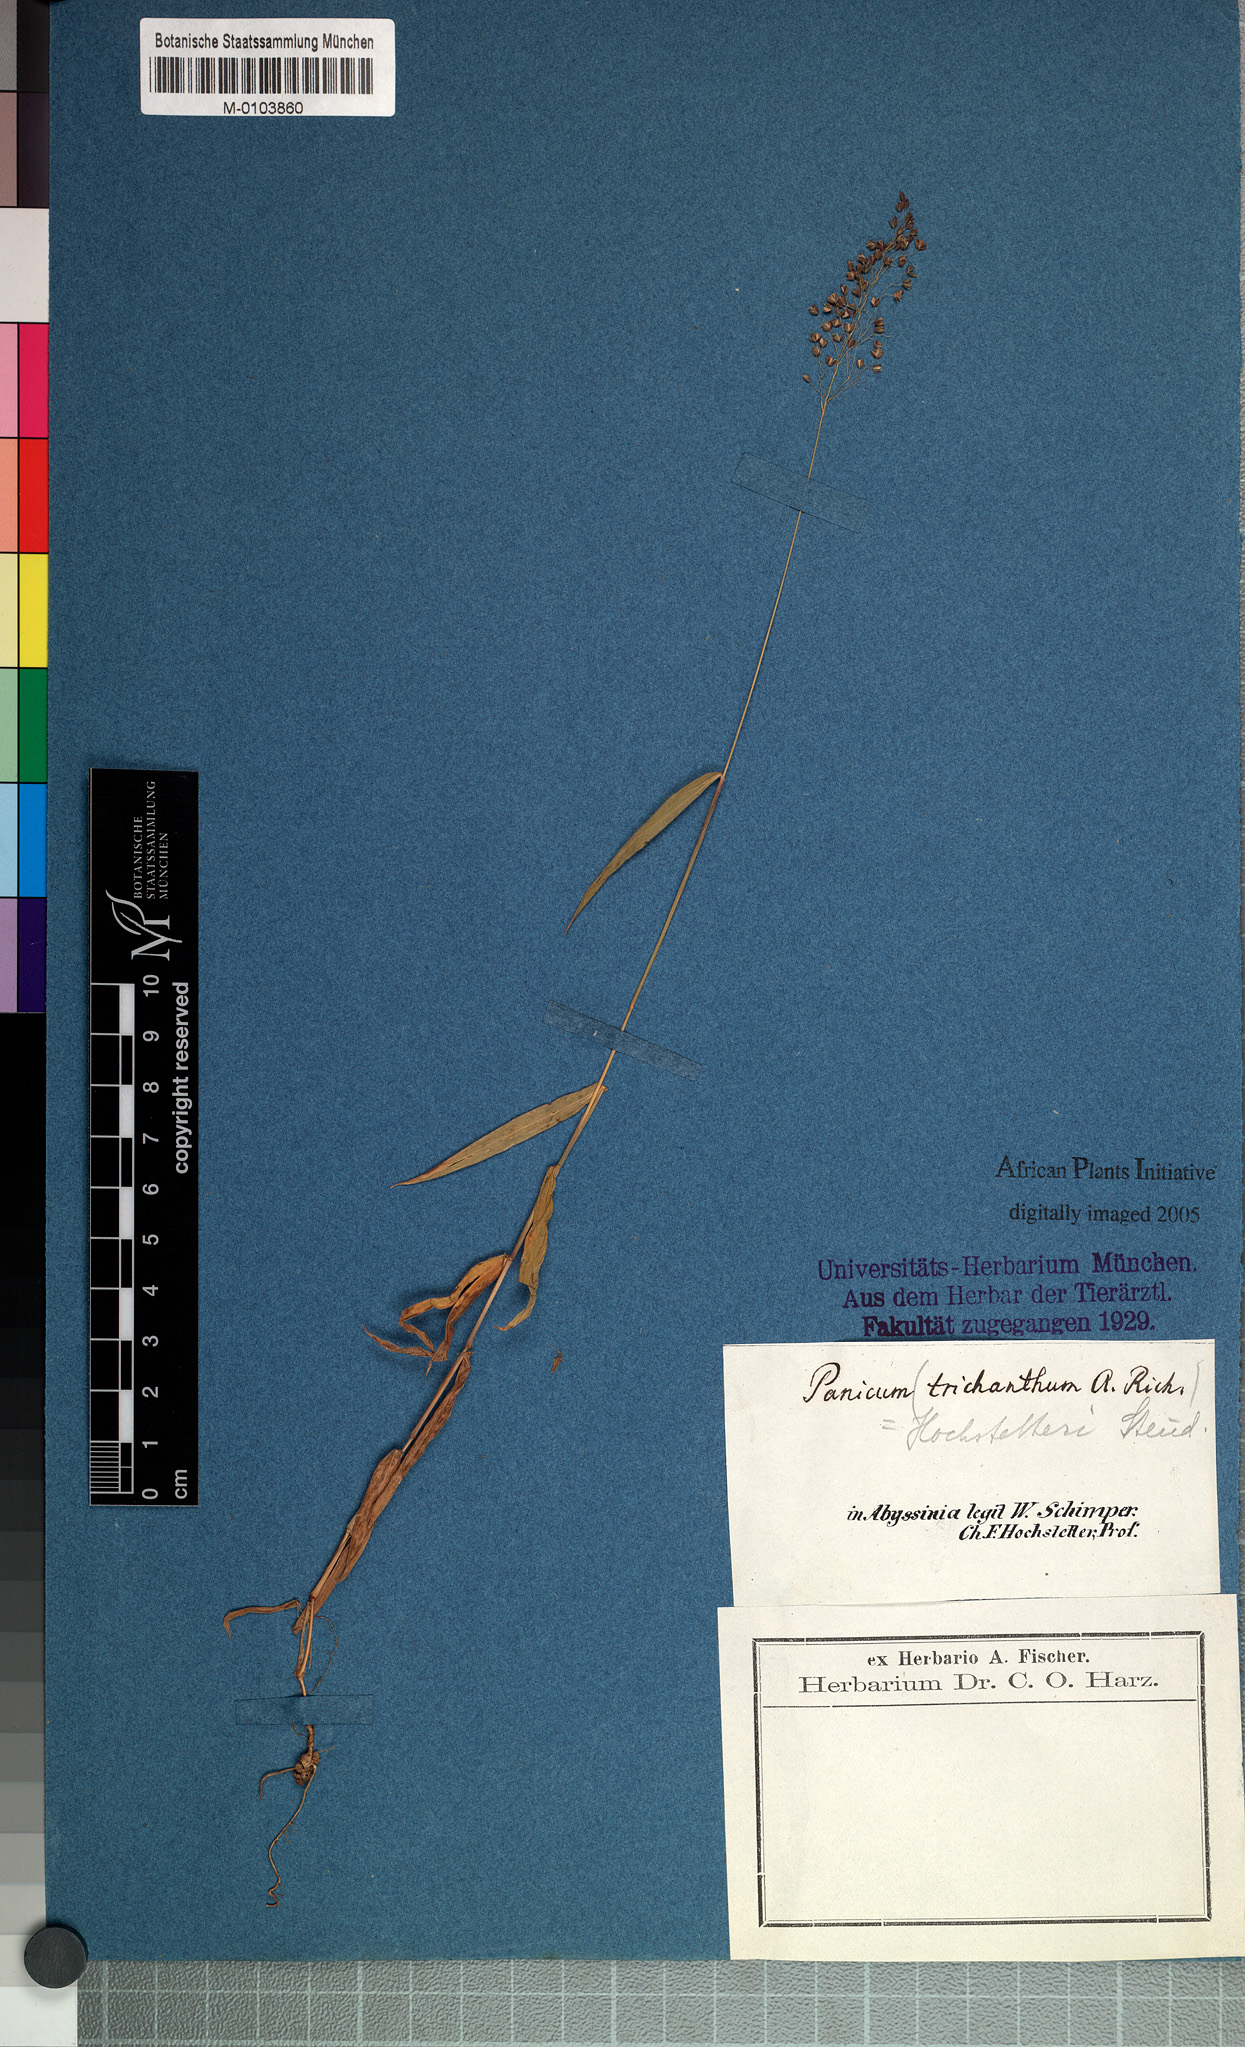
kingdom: Plantae
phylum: Tracheophyta
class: Liliopsida
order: Poales
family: Poaceae
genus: Panicum
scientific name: Panicum hochstetteri
